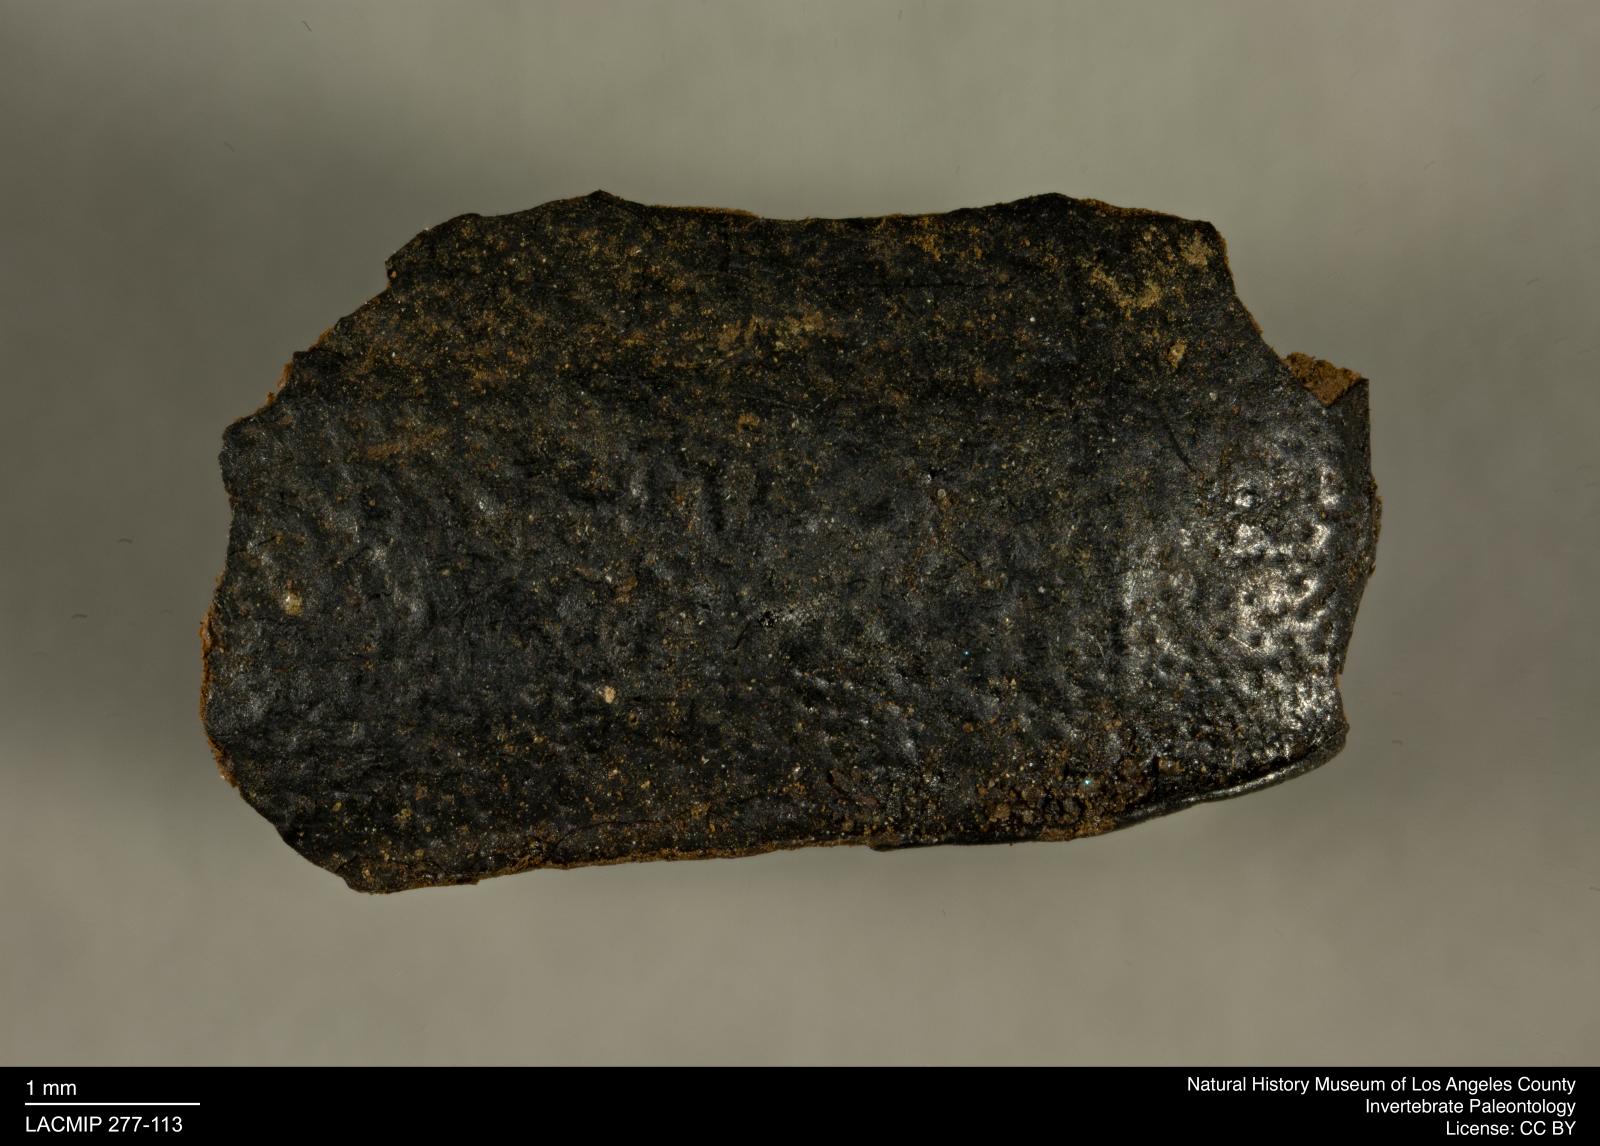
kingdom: Animalia
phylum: Arthropoda
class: Insecta
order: Coleoptera
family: Tenebrionidae
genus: Coniontis
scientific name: Coniontis abdominalis
